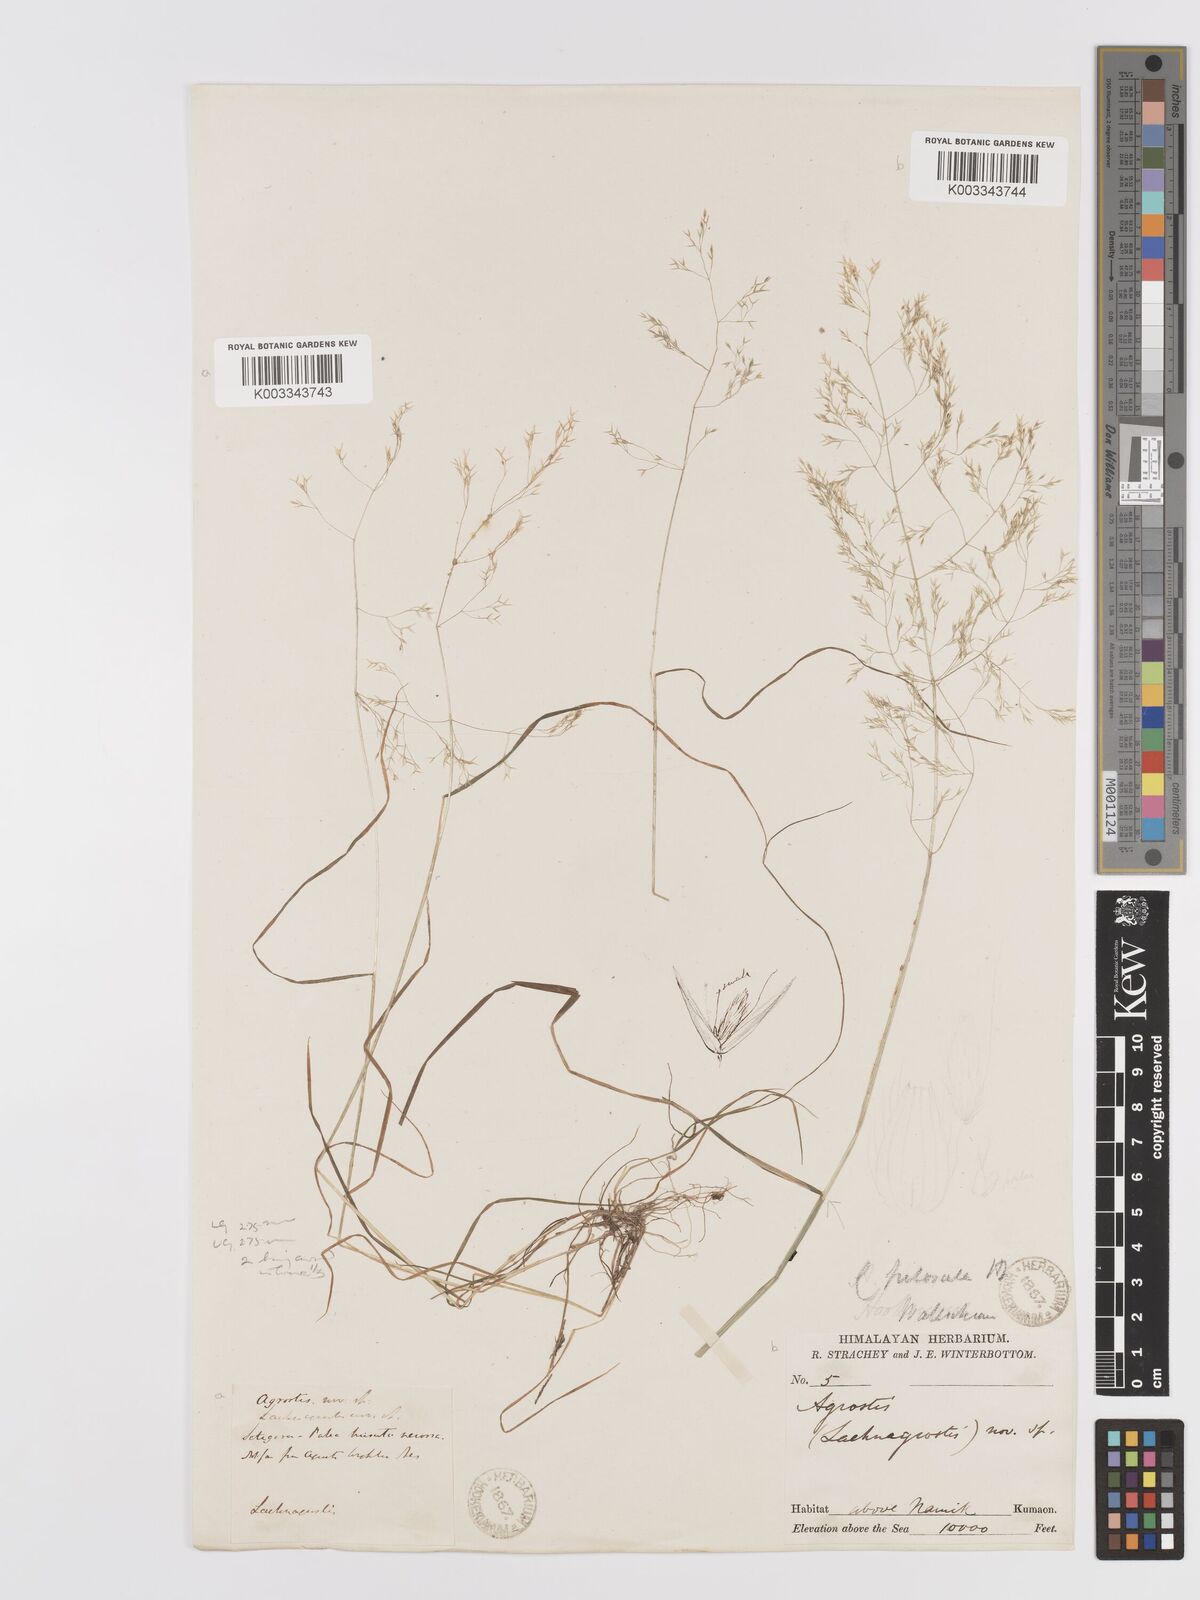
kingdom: Plantae
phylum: Tracheophyta
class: Liliopsida
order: Poales
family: Poaceae
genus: Agrostis
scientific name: Agrostis pilosula
